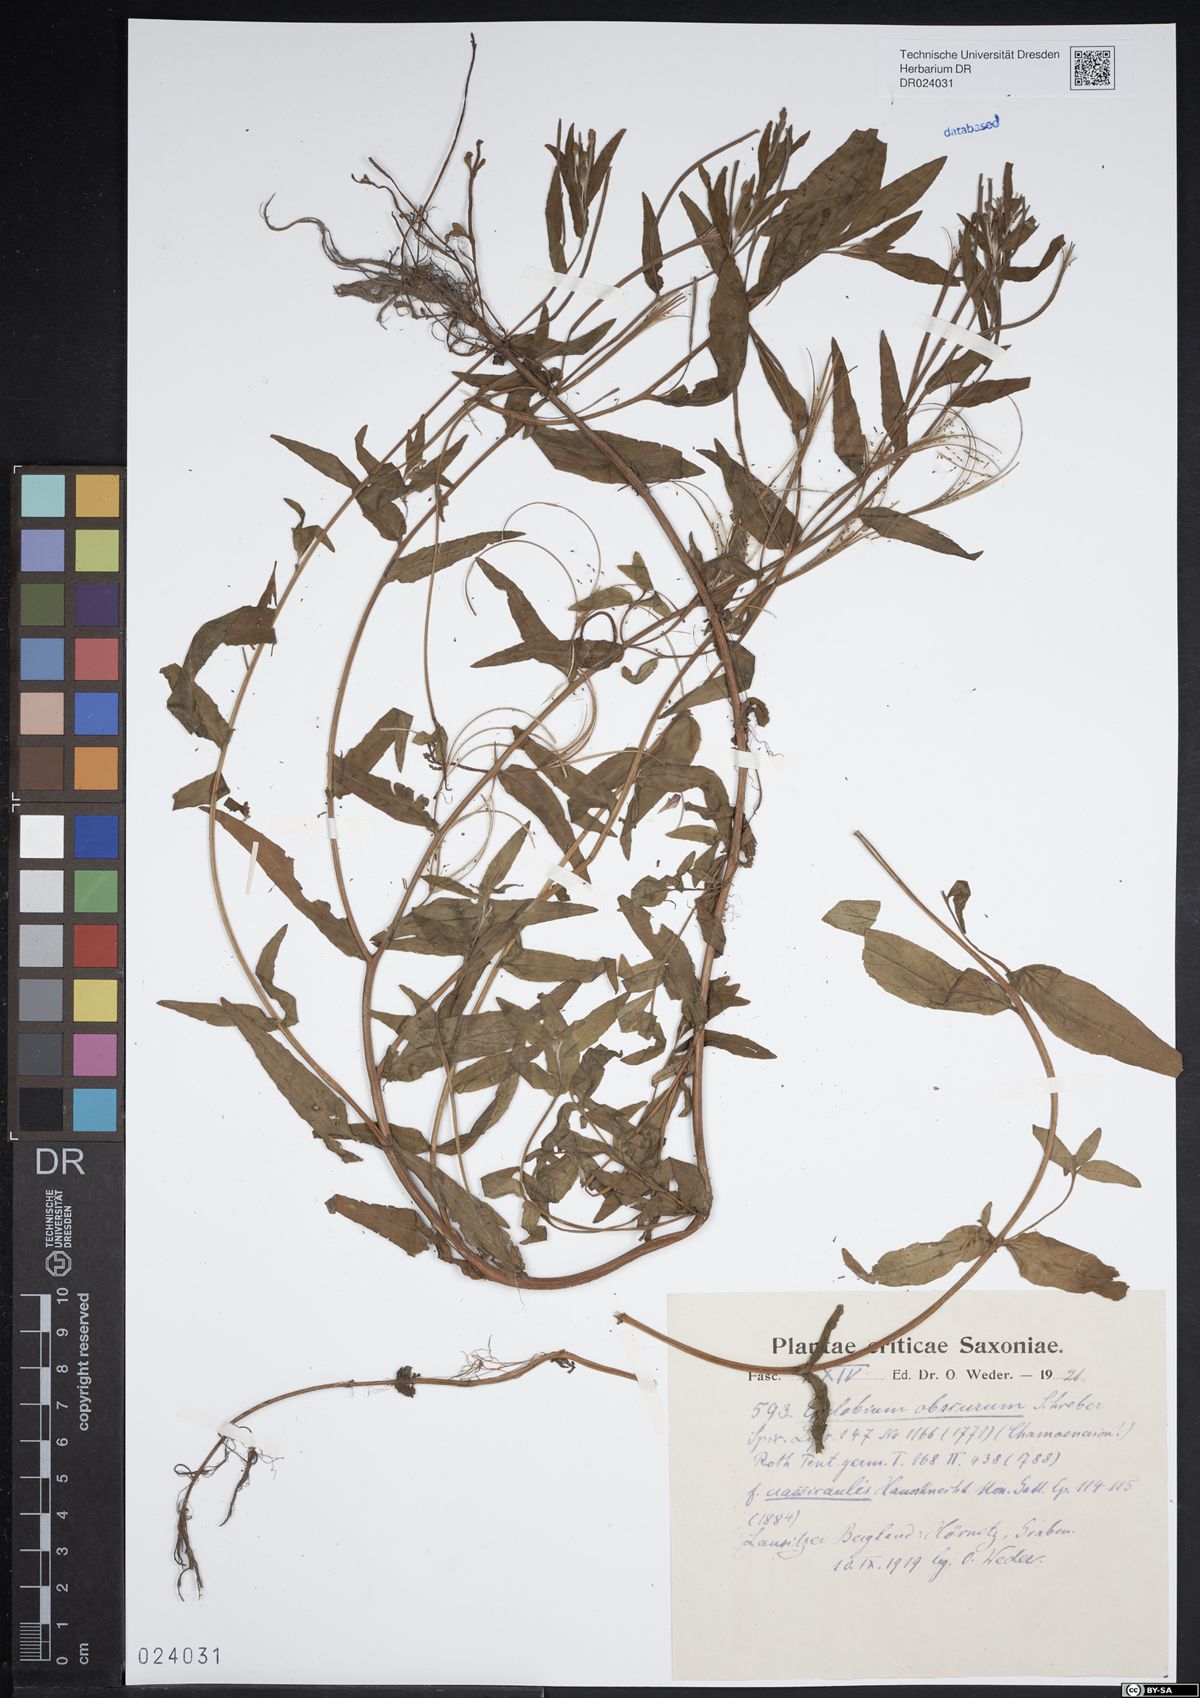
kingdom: Plantae
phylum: Tracheophyta
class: Magnoliopsida
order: Myrtales
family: Onagraceae
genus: Epilobium
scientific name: Epilobium obscurum
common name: Short-fruited willowherb
